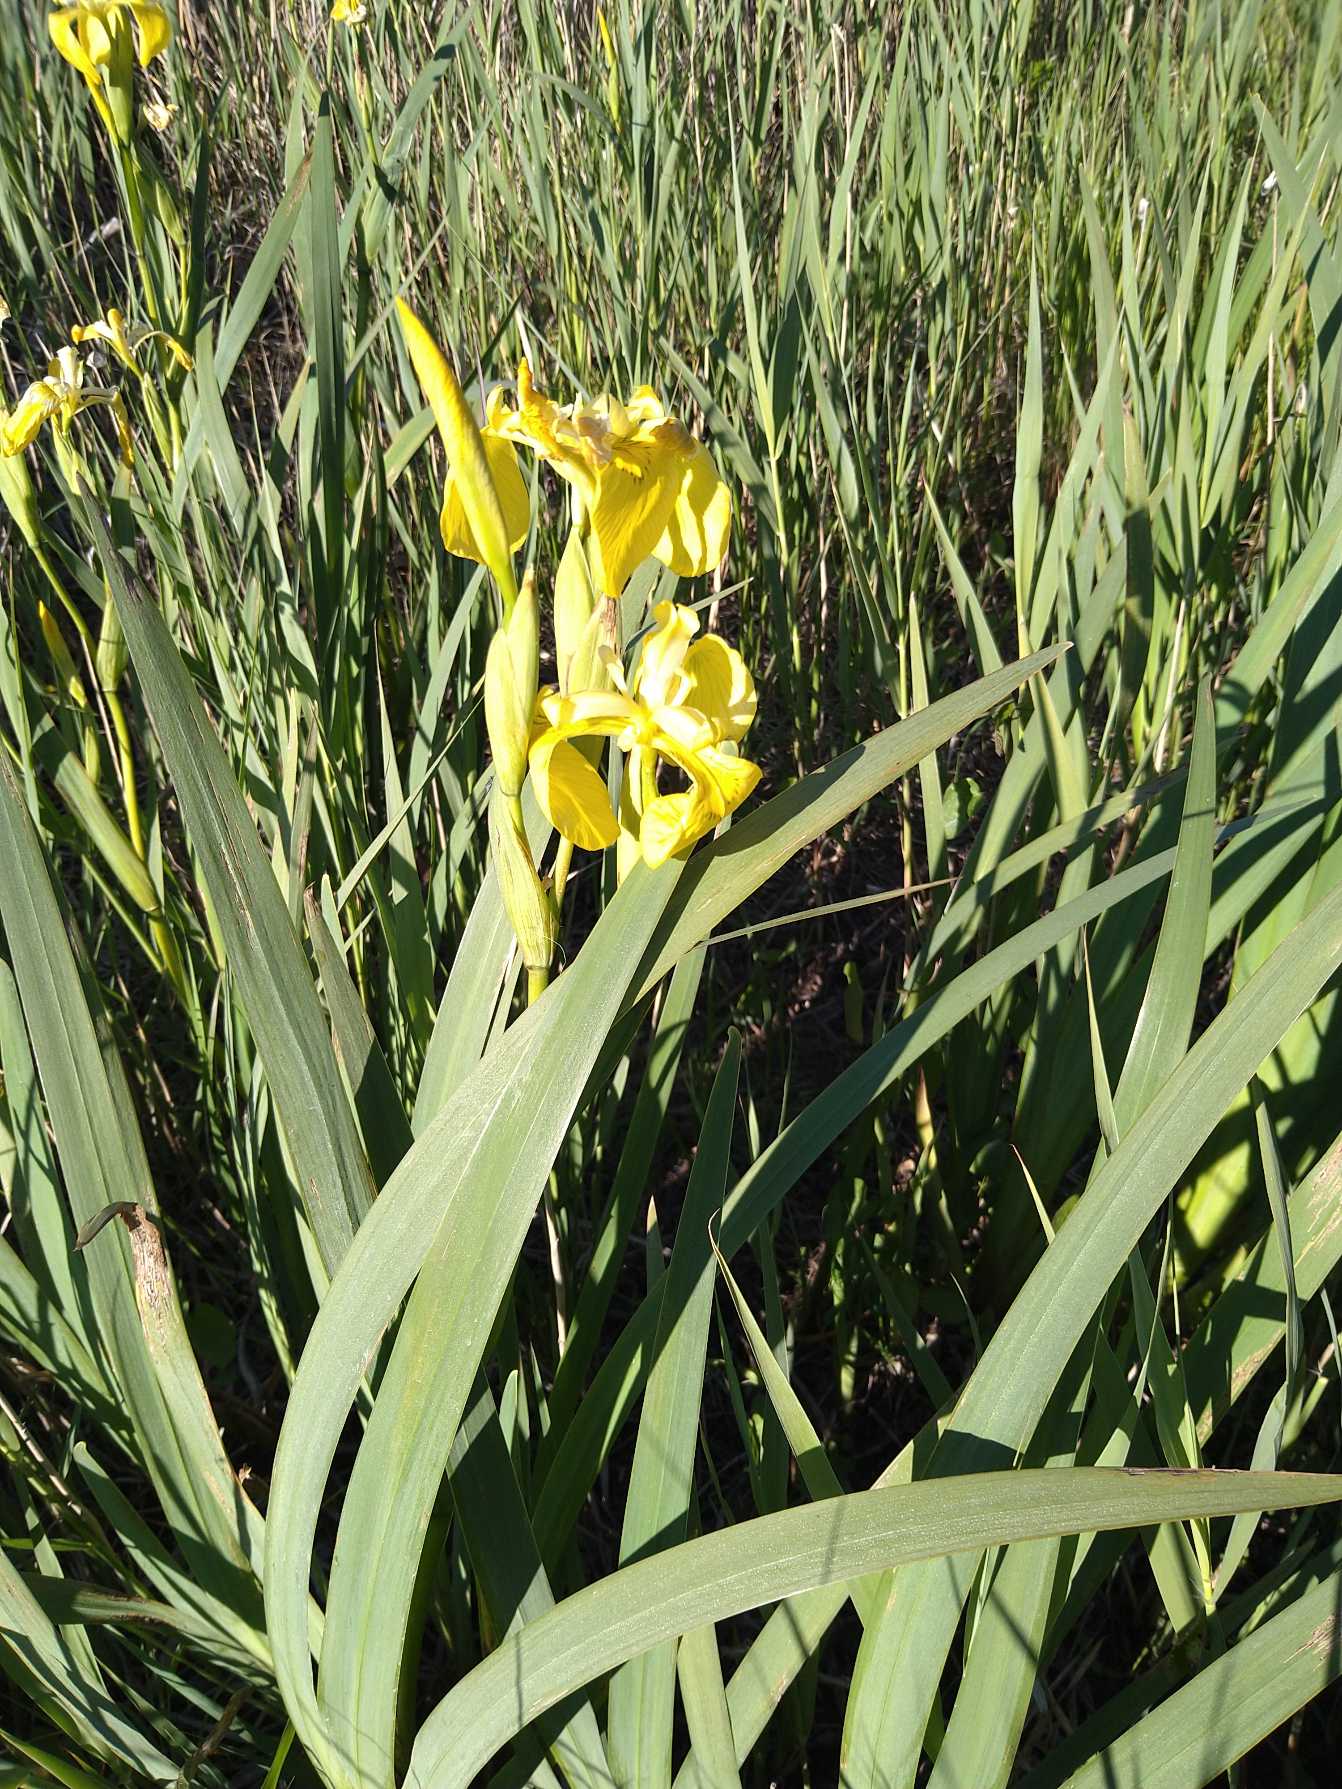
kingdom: Plantae
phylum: Tracheophyta
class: Liliopsida
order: Asparagales
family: Iridaceae
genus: Iris
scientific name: Iris pseudacorus
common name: Gul iris
